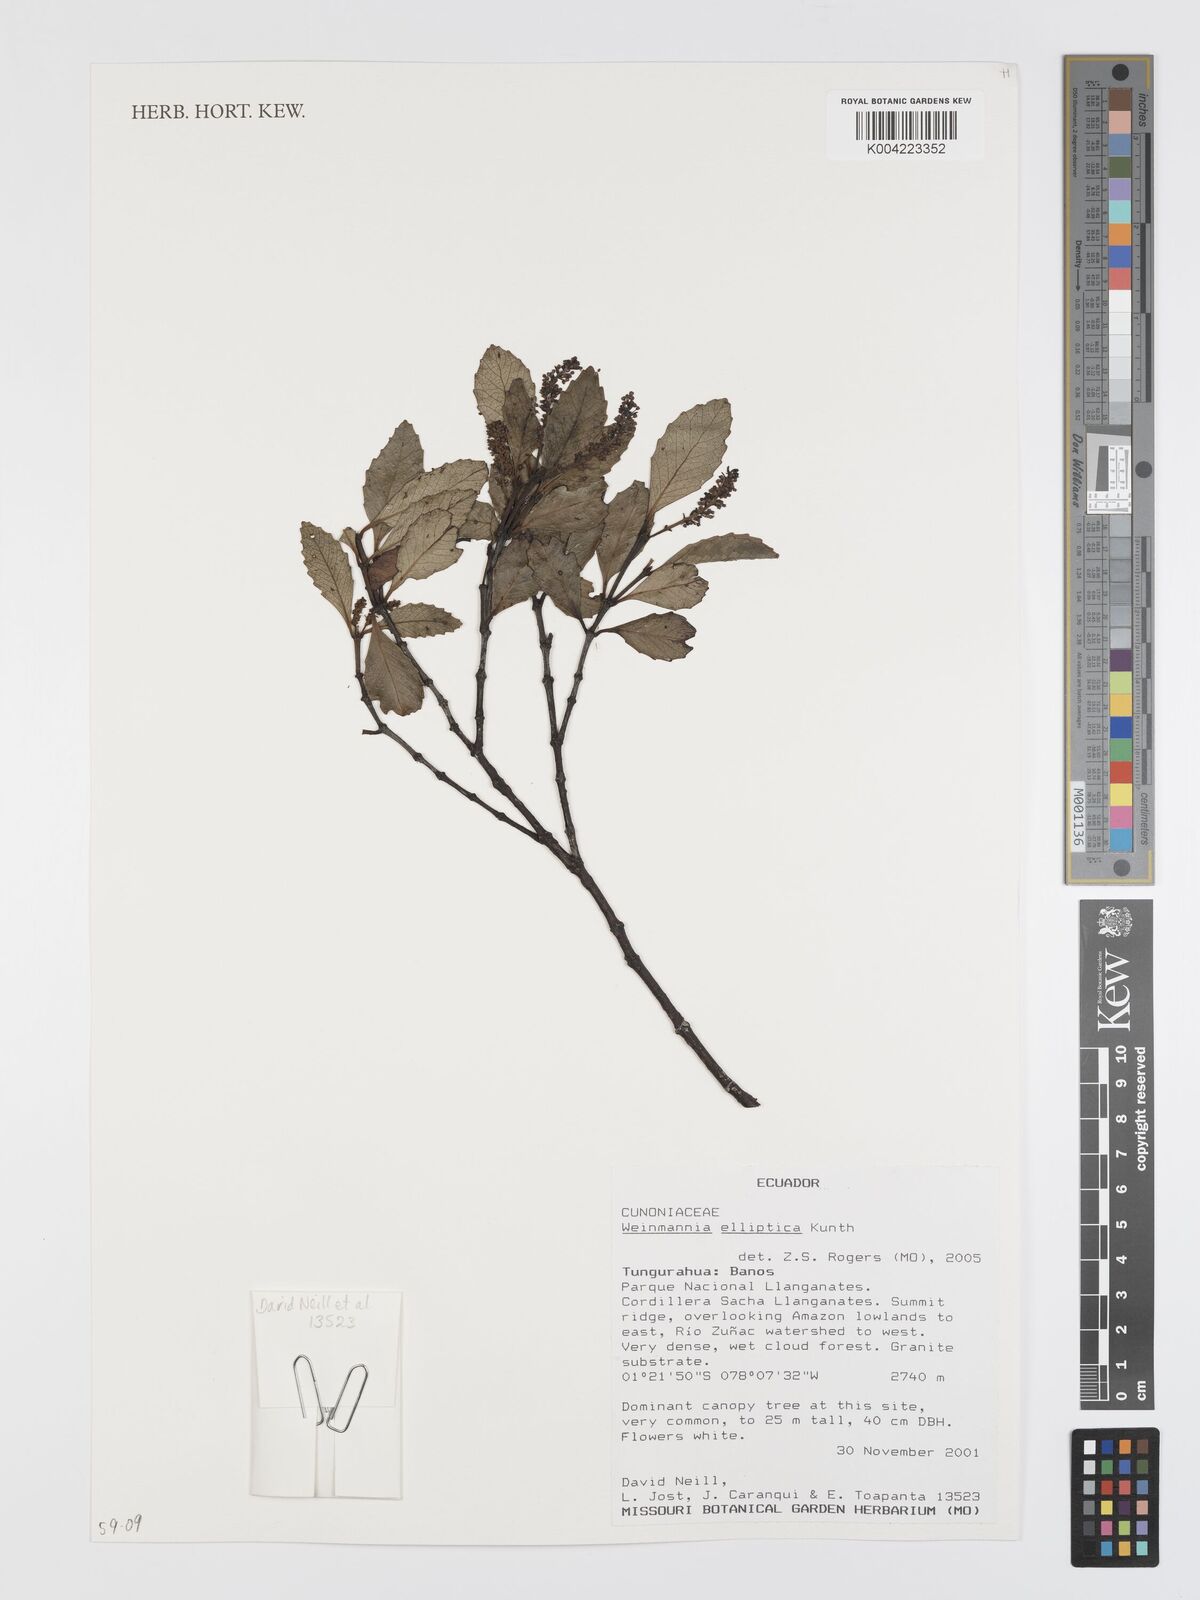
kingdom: Plantae
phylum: Tracheophyta
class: Magnoliopsida
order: Oxalidales
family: Cunoniaceae
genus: Weinmannia
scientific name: Weinmannia elliptica
